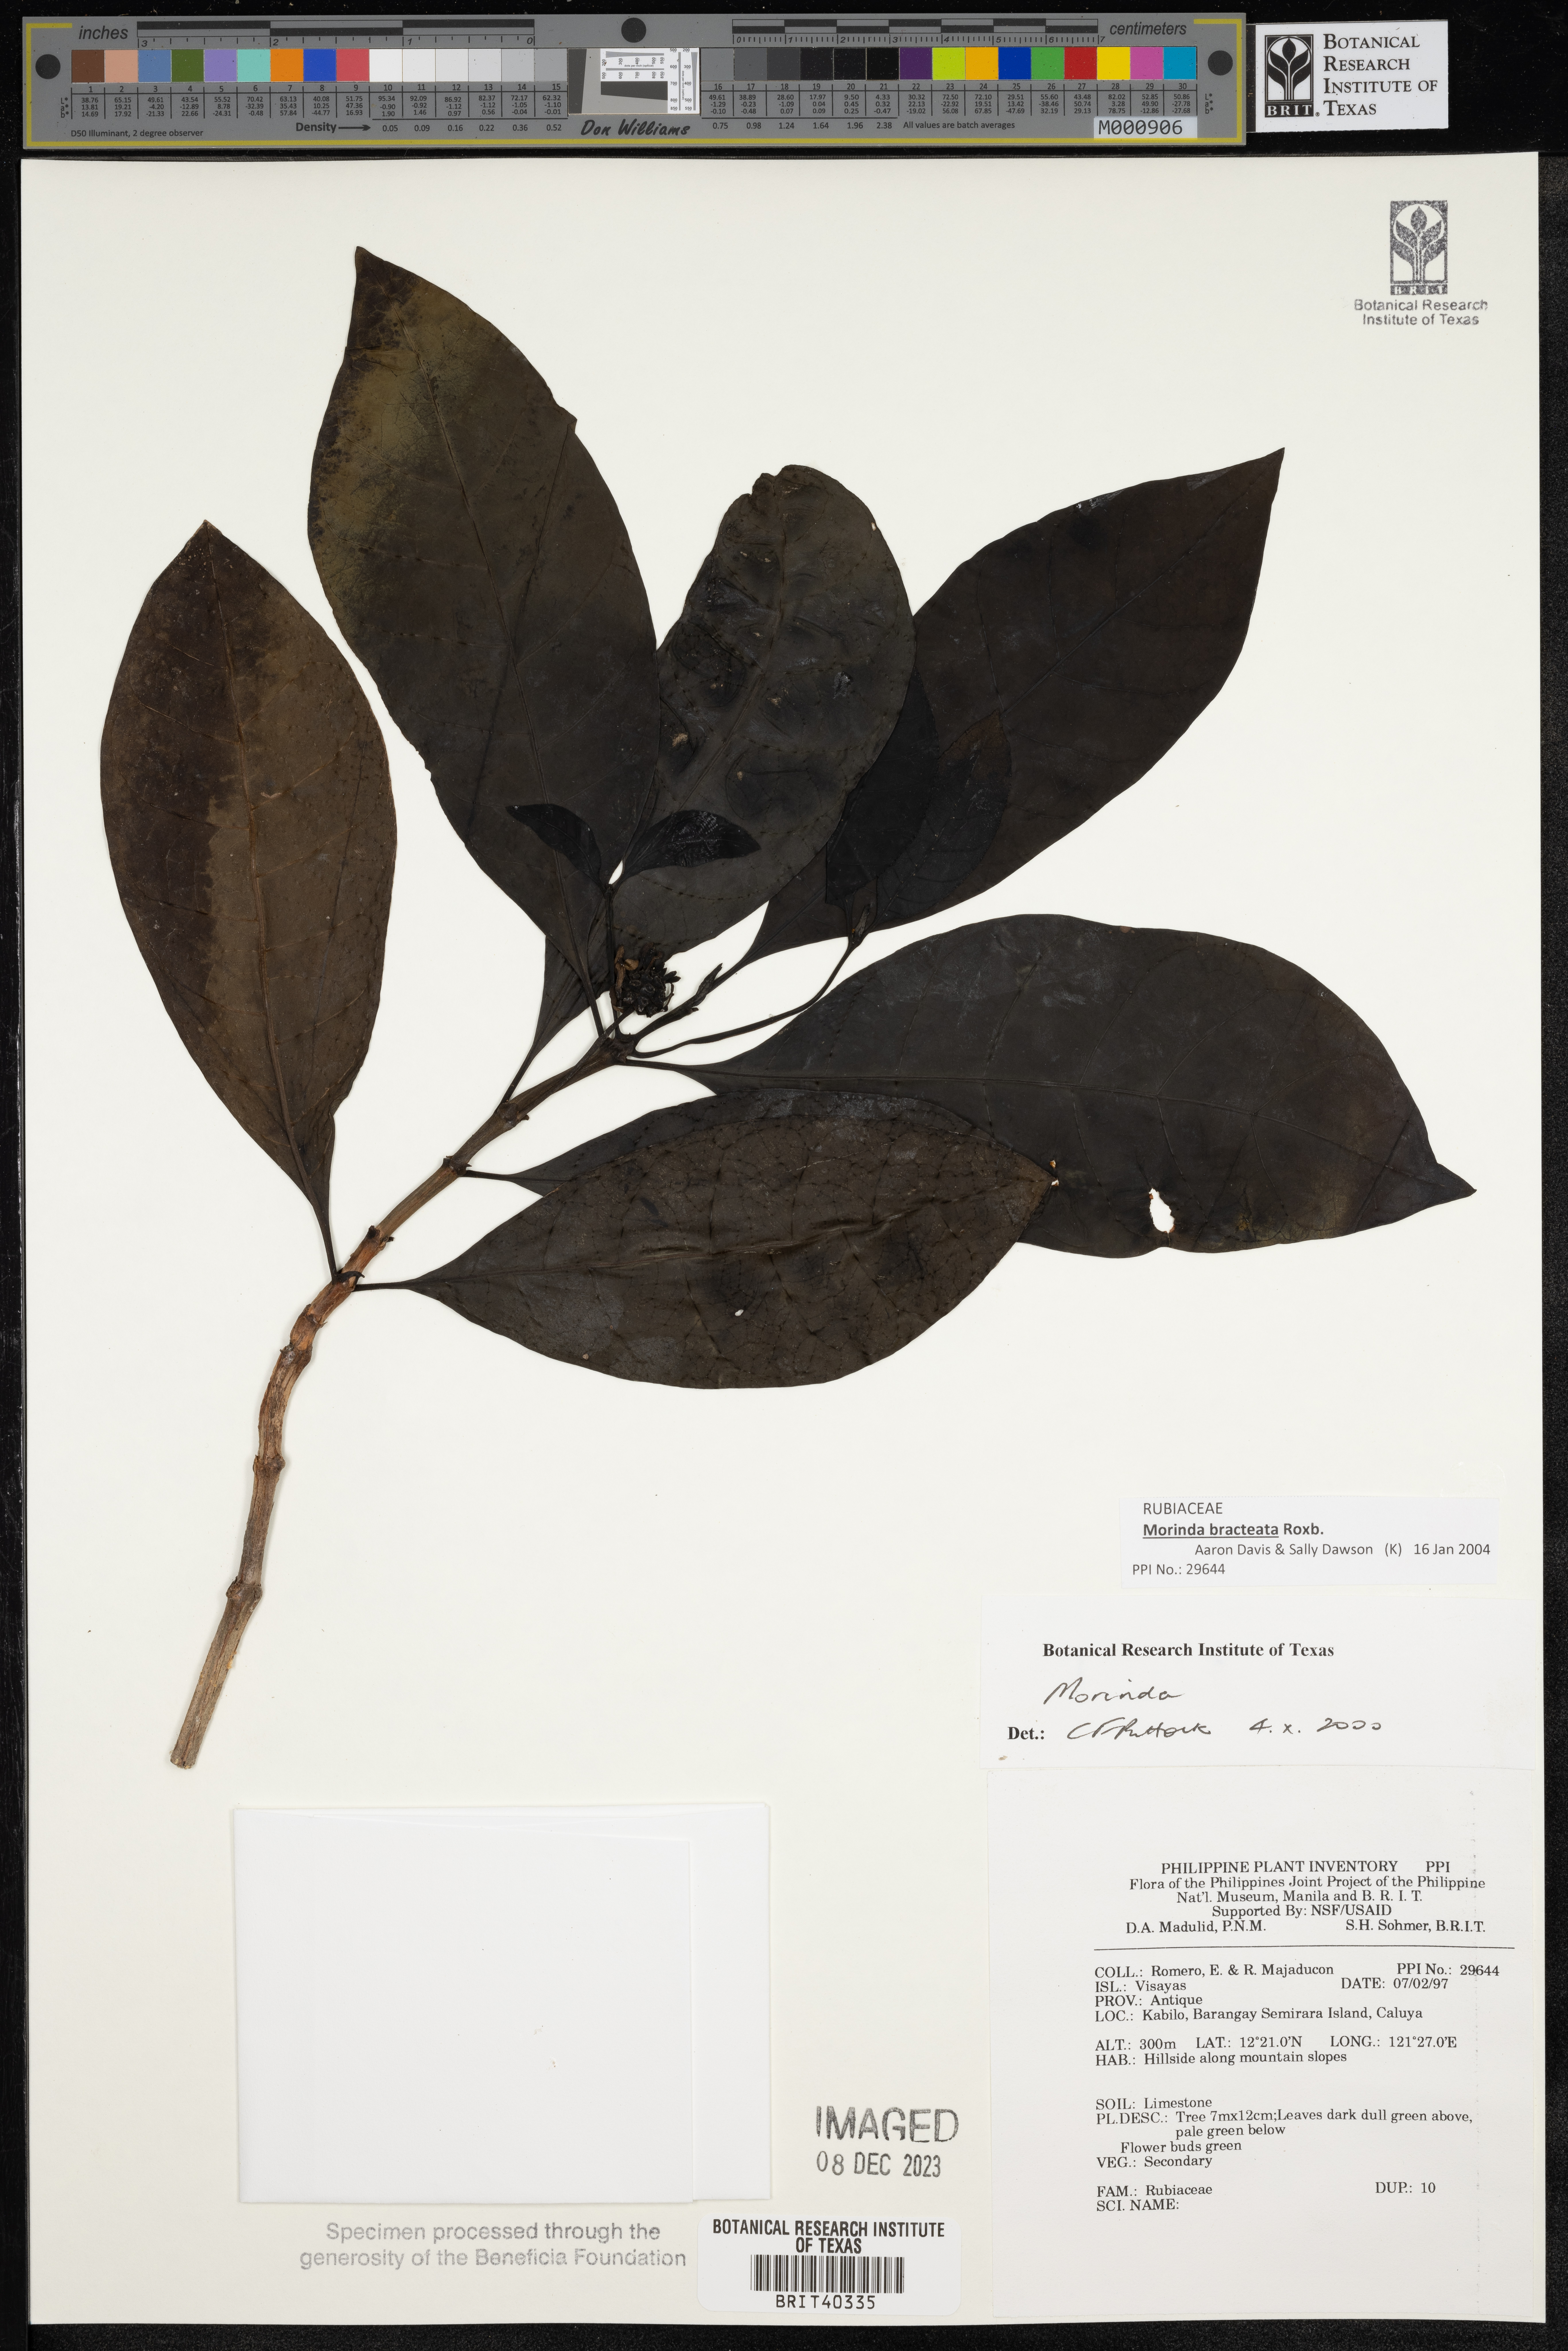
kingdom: Plantae
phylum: Tracheophyta
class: Magnoliopsida
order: Gentianales
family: Rubiaceae
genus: Morinda
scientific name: Morinda
